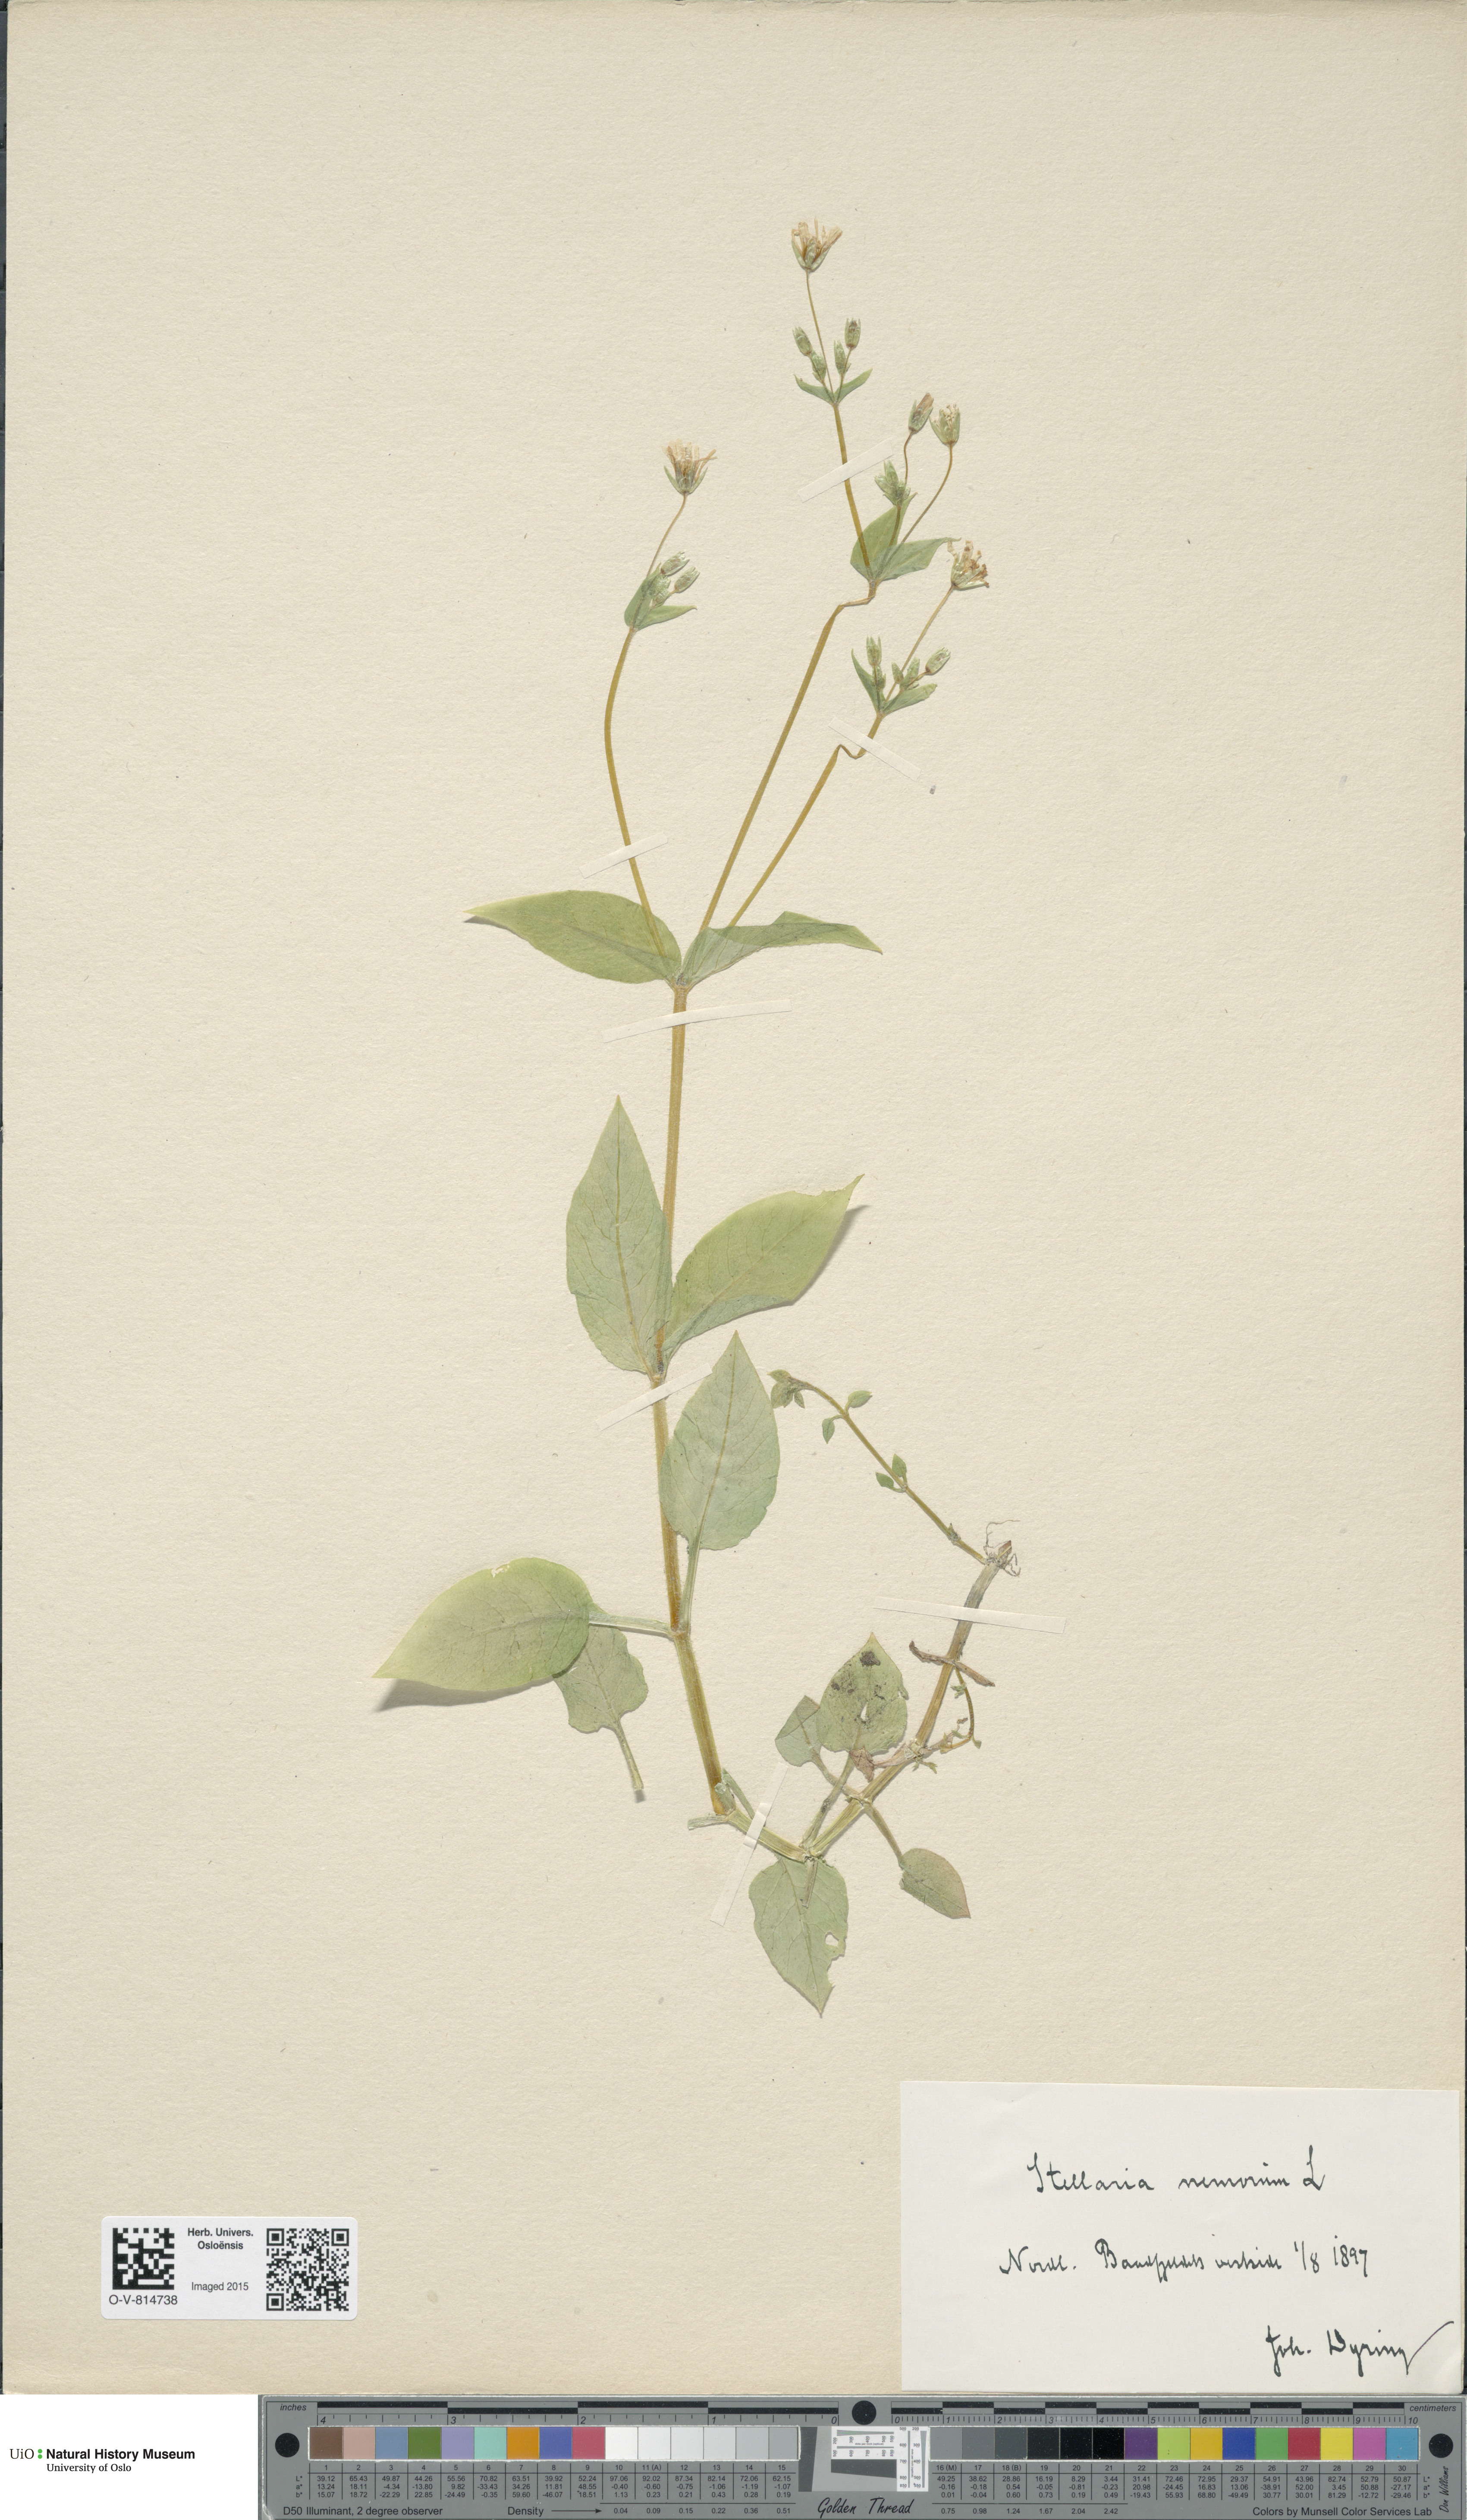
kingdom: Plantae
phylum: Tracheophyta
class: Magnoliopsida
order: Caryophyllales
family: Caryophyllaceae
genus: Stellaria
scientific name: Stellaria nemorum
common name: Wood stitchwort
